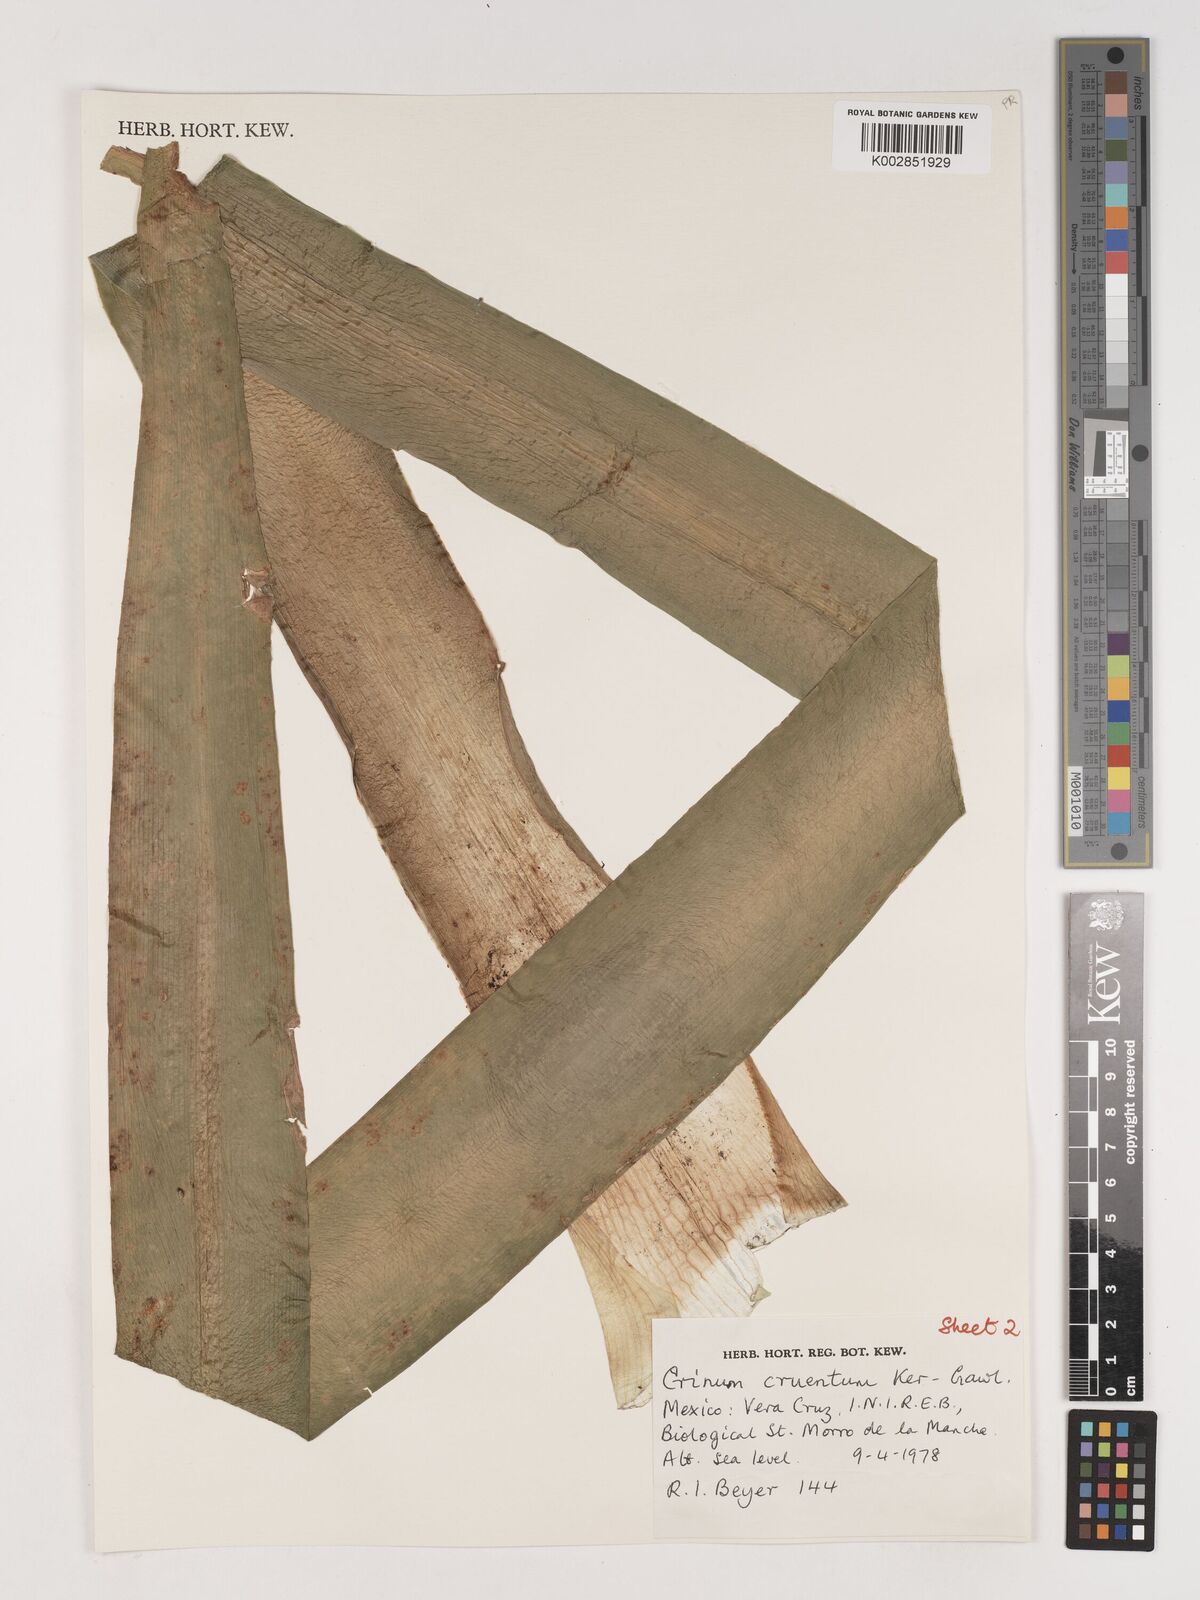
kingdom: Plantae
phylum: Tracheophyta
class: Liliopsida
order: Asparagales
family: Amaryllidaceae
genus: Crinum
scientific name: Crinum erubescens
